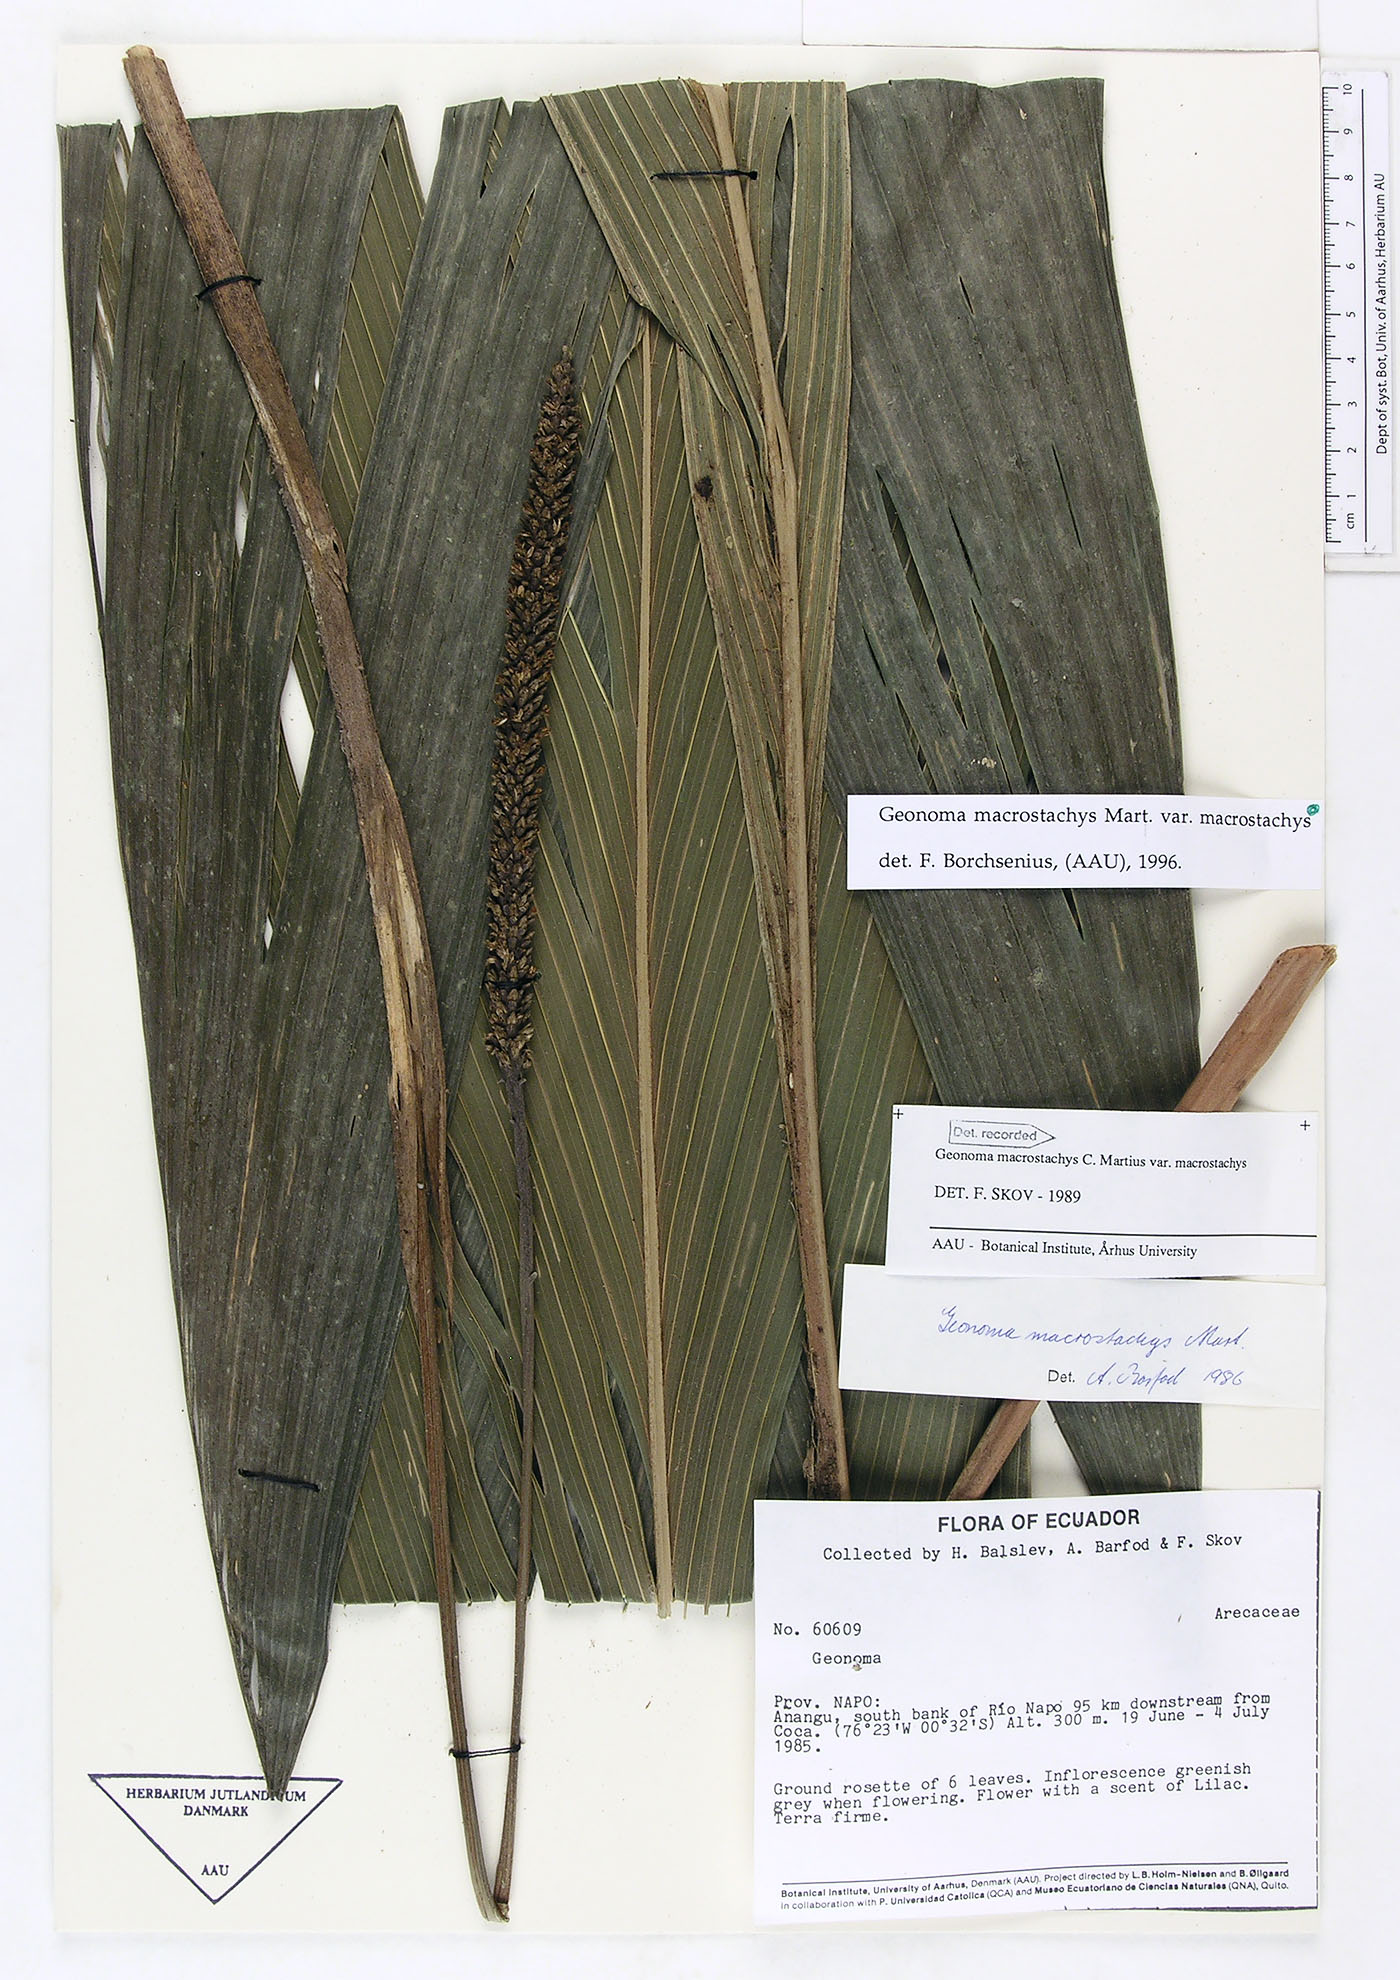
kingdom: Plantae
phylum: Tracheophyta
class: Liliopsida
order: Arecales
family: Arecaceae
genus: Geonoma
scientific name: Geonoma macrostachys
